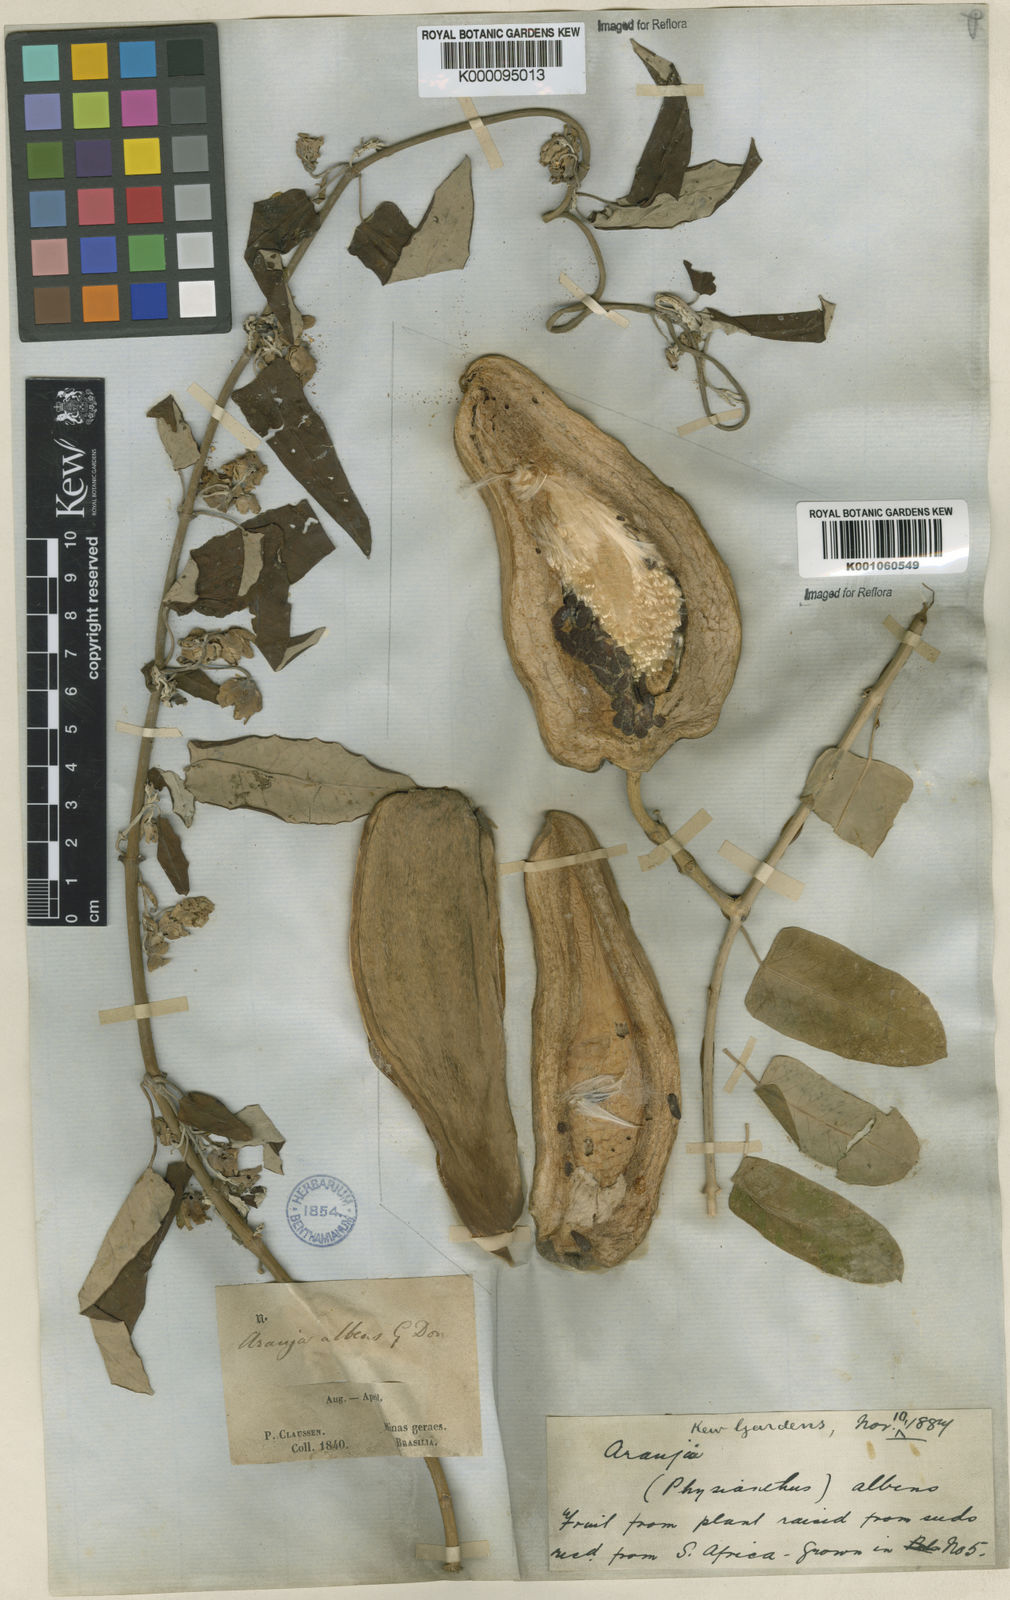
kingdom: Plantae
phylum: Tracheophyta
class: Magnoliopsida
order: Gentianales
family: Apocynaceae
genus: Araujia
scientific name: Araujia sericifera
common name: White bladderflower
